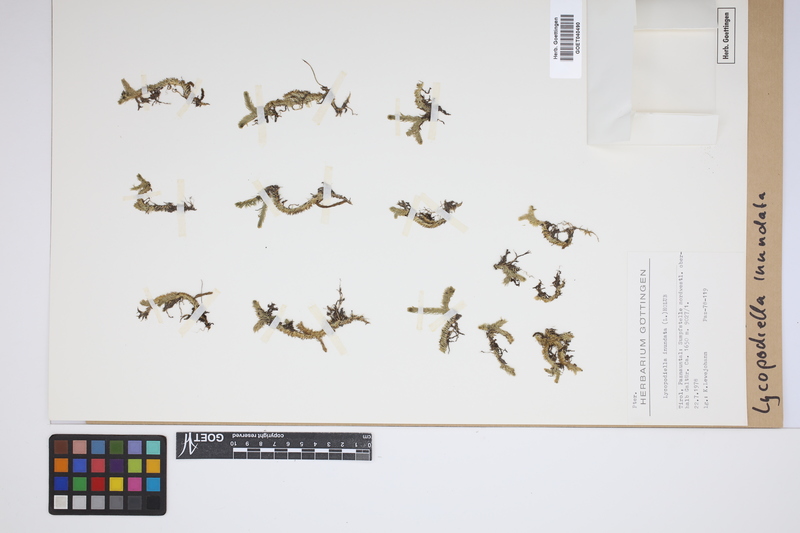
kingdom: Plantae
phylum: Tracheophyta
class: Lycopodiopsida
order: Lycopodiales
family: Lycopodiaceae
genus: Lycopodiella
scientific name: Lycopodiella inundata
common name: Marsh clubmoss
